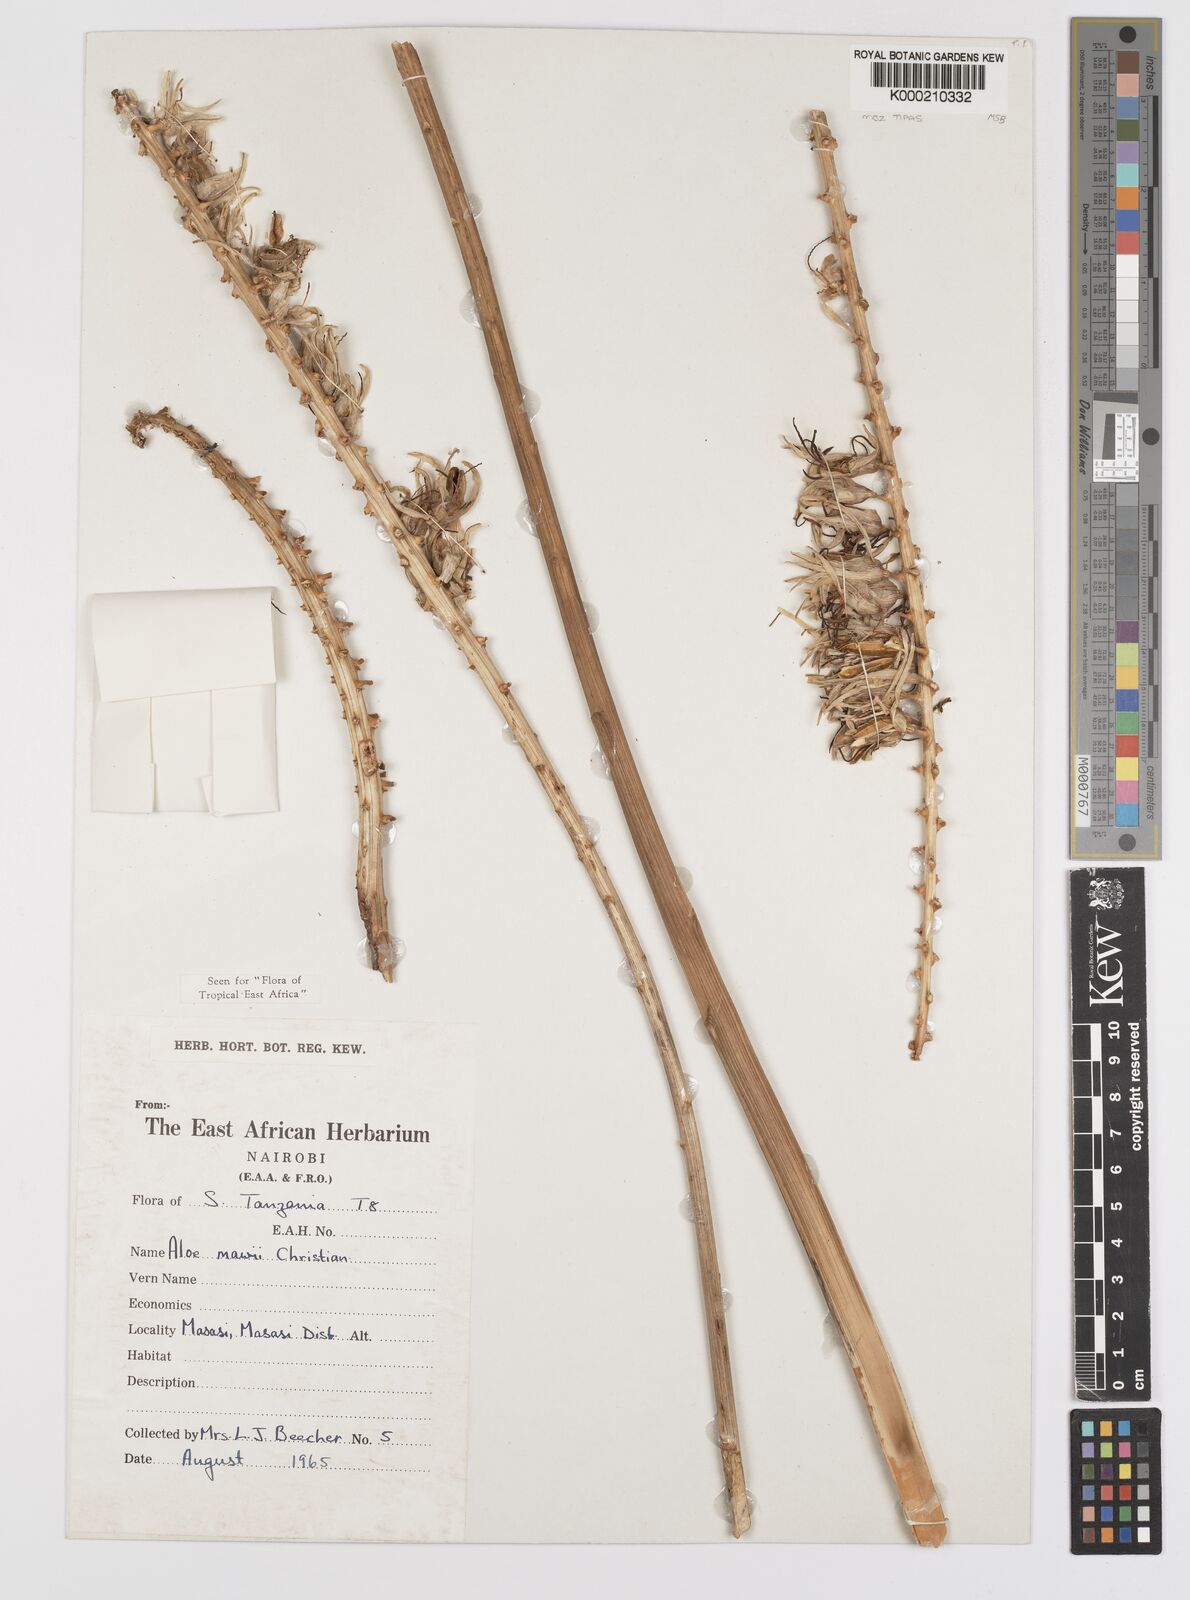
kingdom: Plantae
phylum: Tracheophyta
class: Liliopsida
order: Asparagales
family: Asphodelaceae
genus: Aloe
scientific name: Aloe mawii
